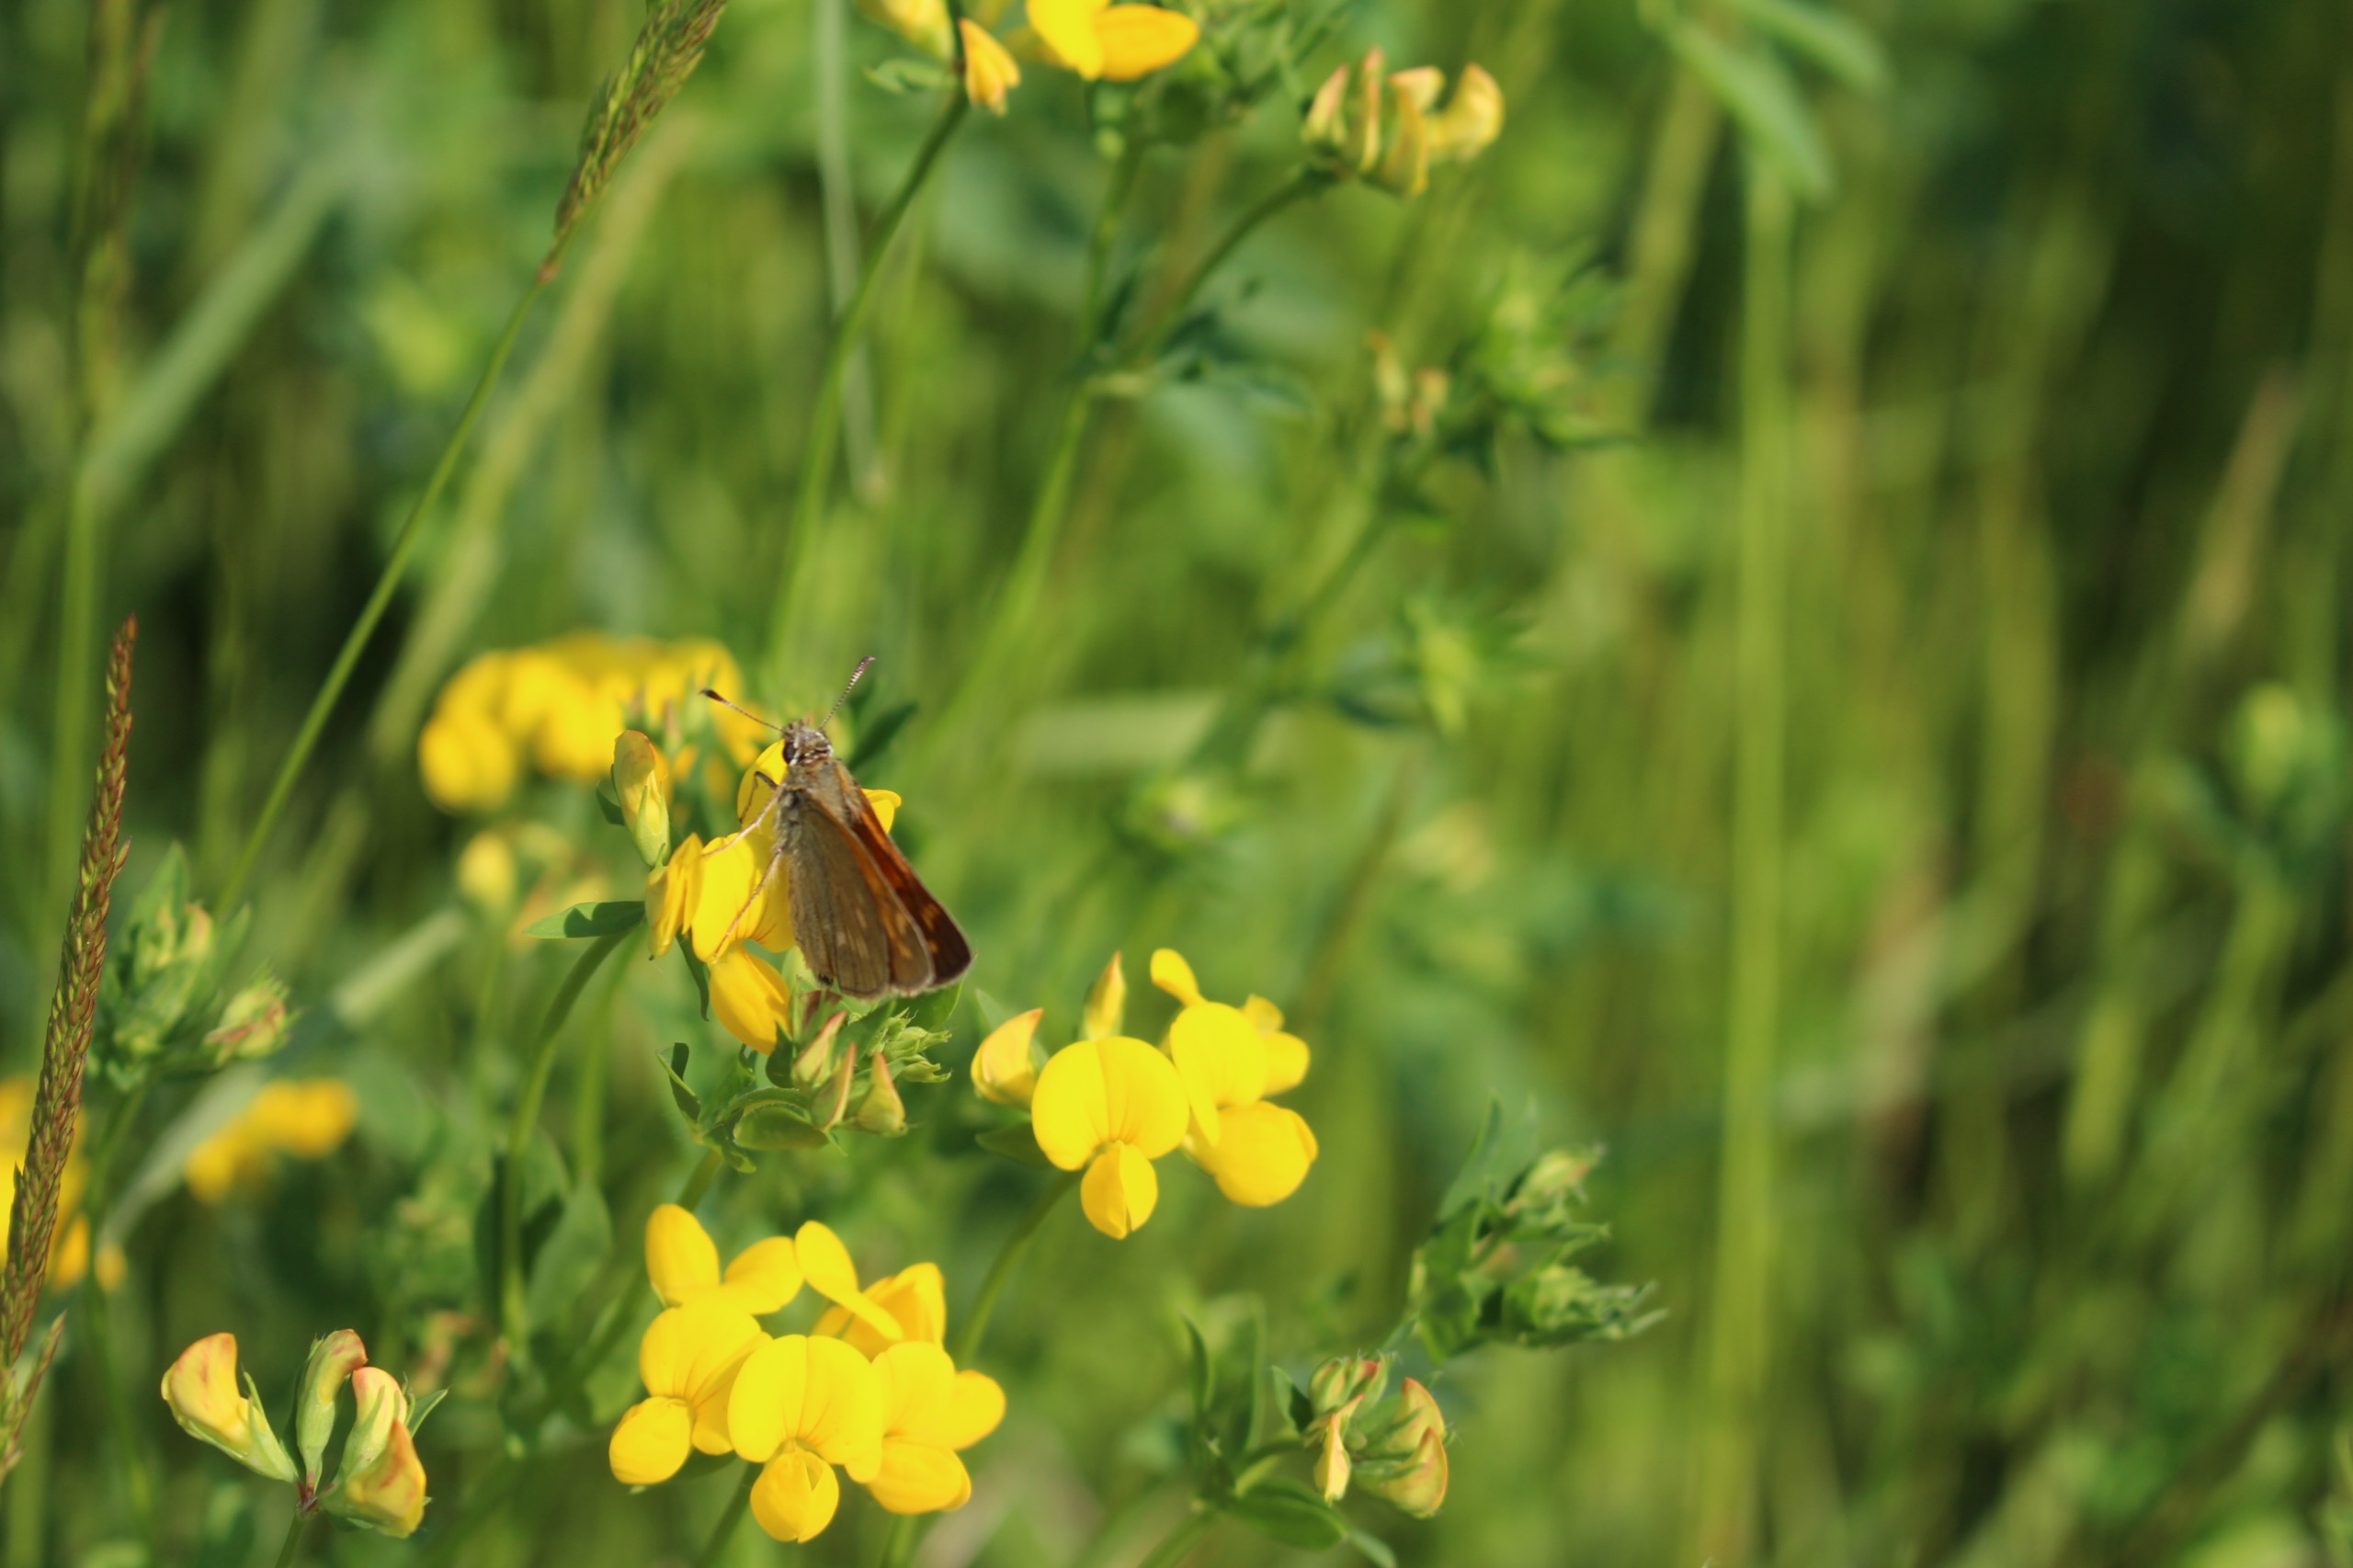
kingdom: Animalia
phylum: Arthropoda
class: Insecta
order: Lepidoptera
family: Hesperiidae
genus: Ochlodes
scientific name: Ochlodes venata
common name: Stor bredpande
